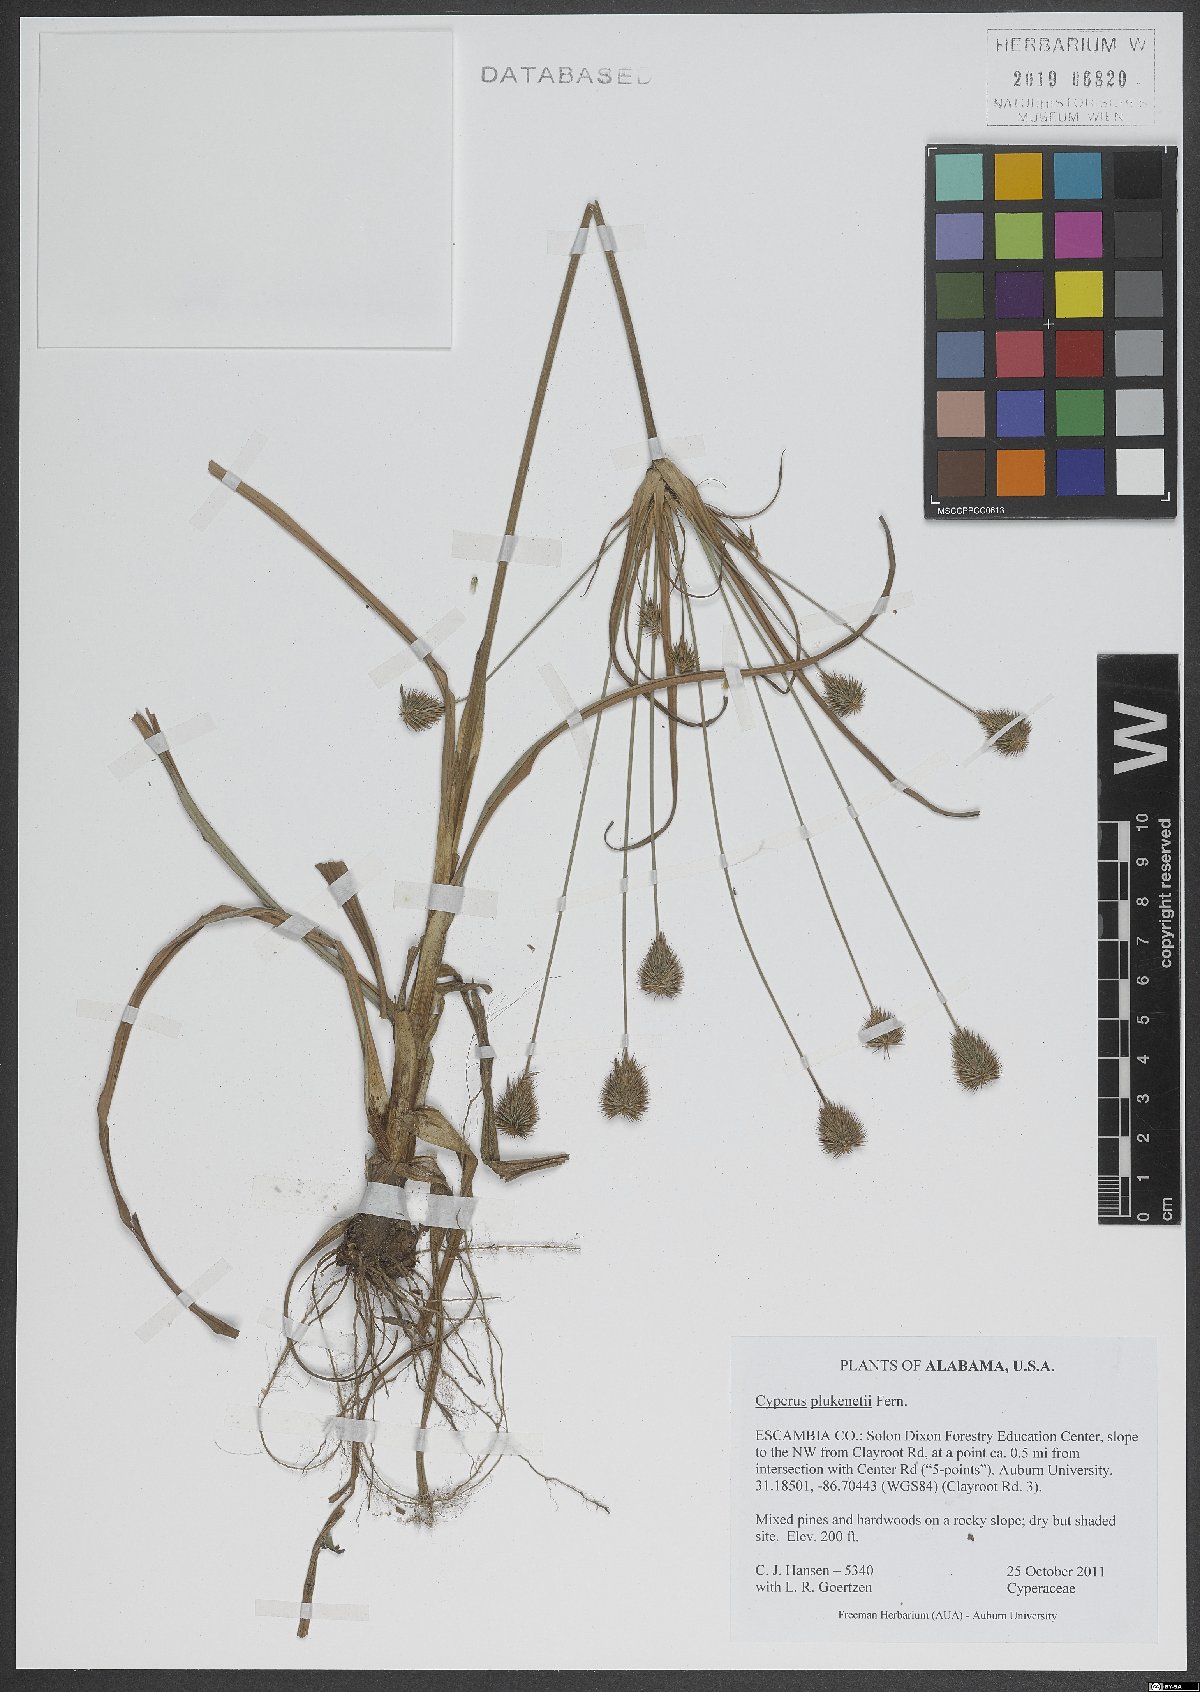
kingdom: Plantae
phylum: Tracheophyta
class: Liliopsida
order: Poales
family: Cyperaceae
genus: Cyperus
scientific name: Cyperus plukenetii
